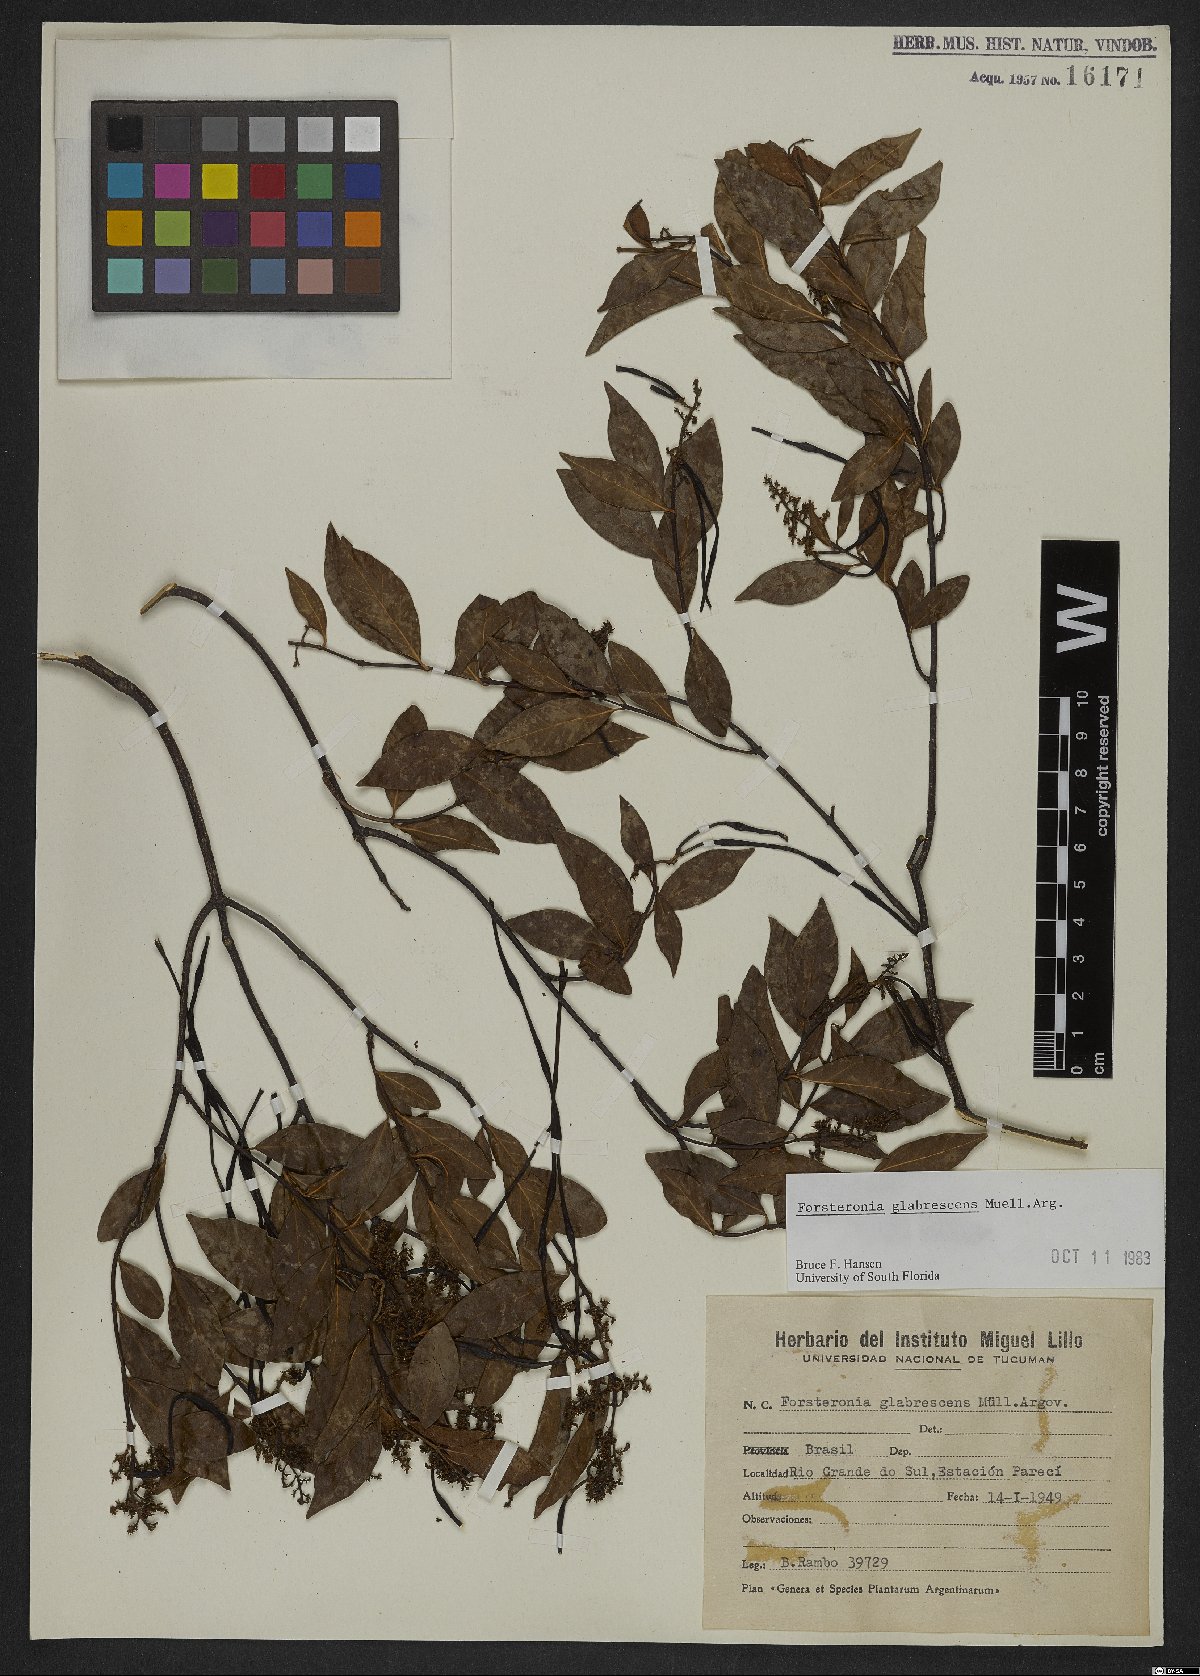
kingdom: Plantae
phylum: Tracheophyta
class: Magnoliopsida
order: Gentianales
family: Apocynaceae
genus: Forsteronia
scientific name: Forsteronia glabrescens
